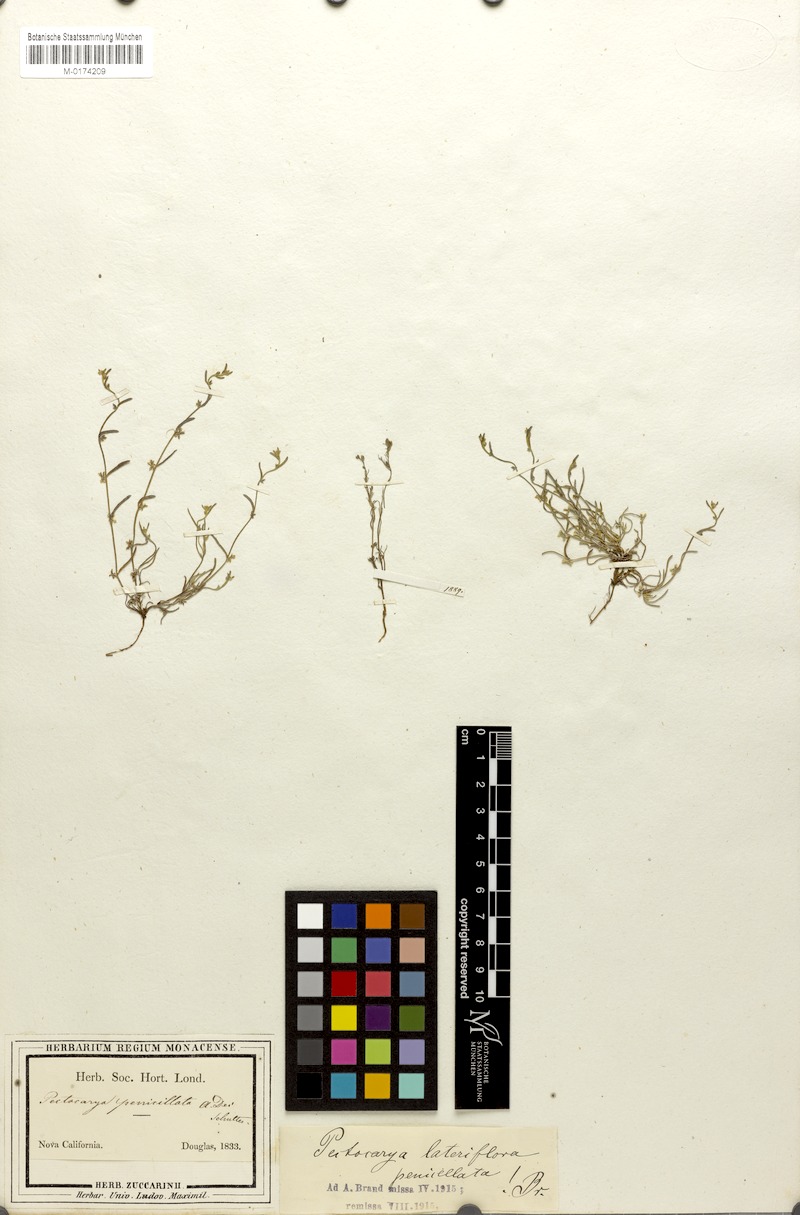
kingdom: Plantae
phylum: Tracheophyta
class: Magnoliopsida
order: Boraginales
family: Boraginaceae
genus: Pectocarya
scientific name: Pectocarya penicillata
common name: Short-leaved combseed
